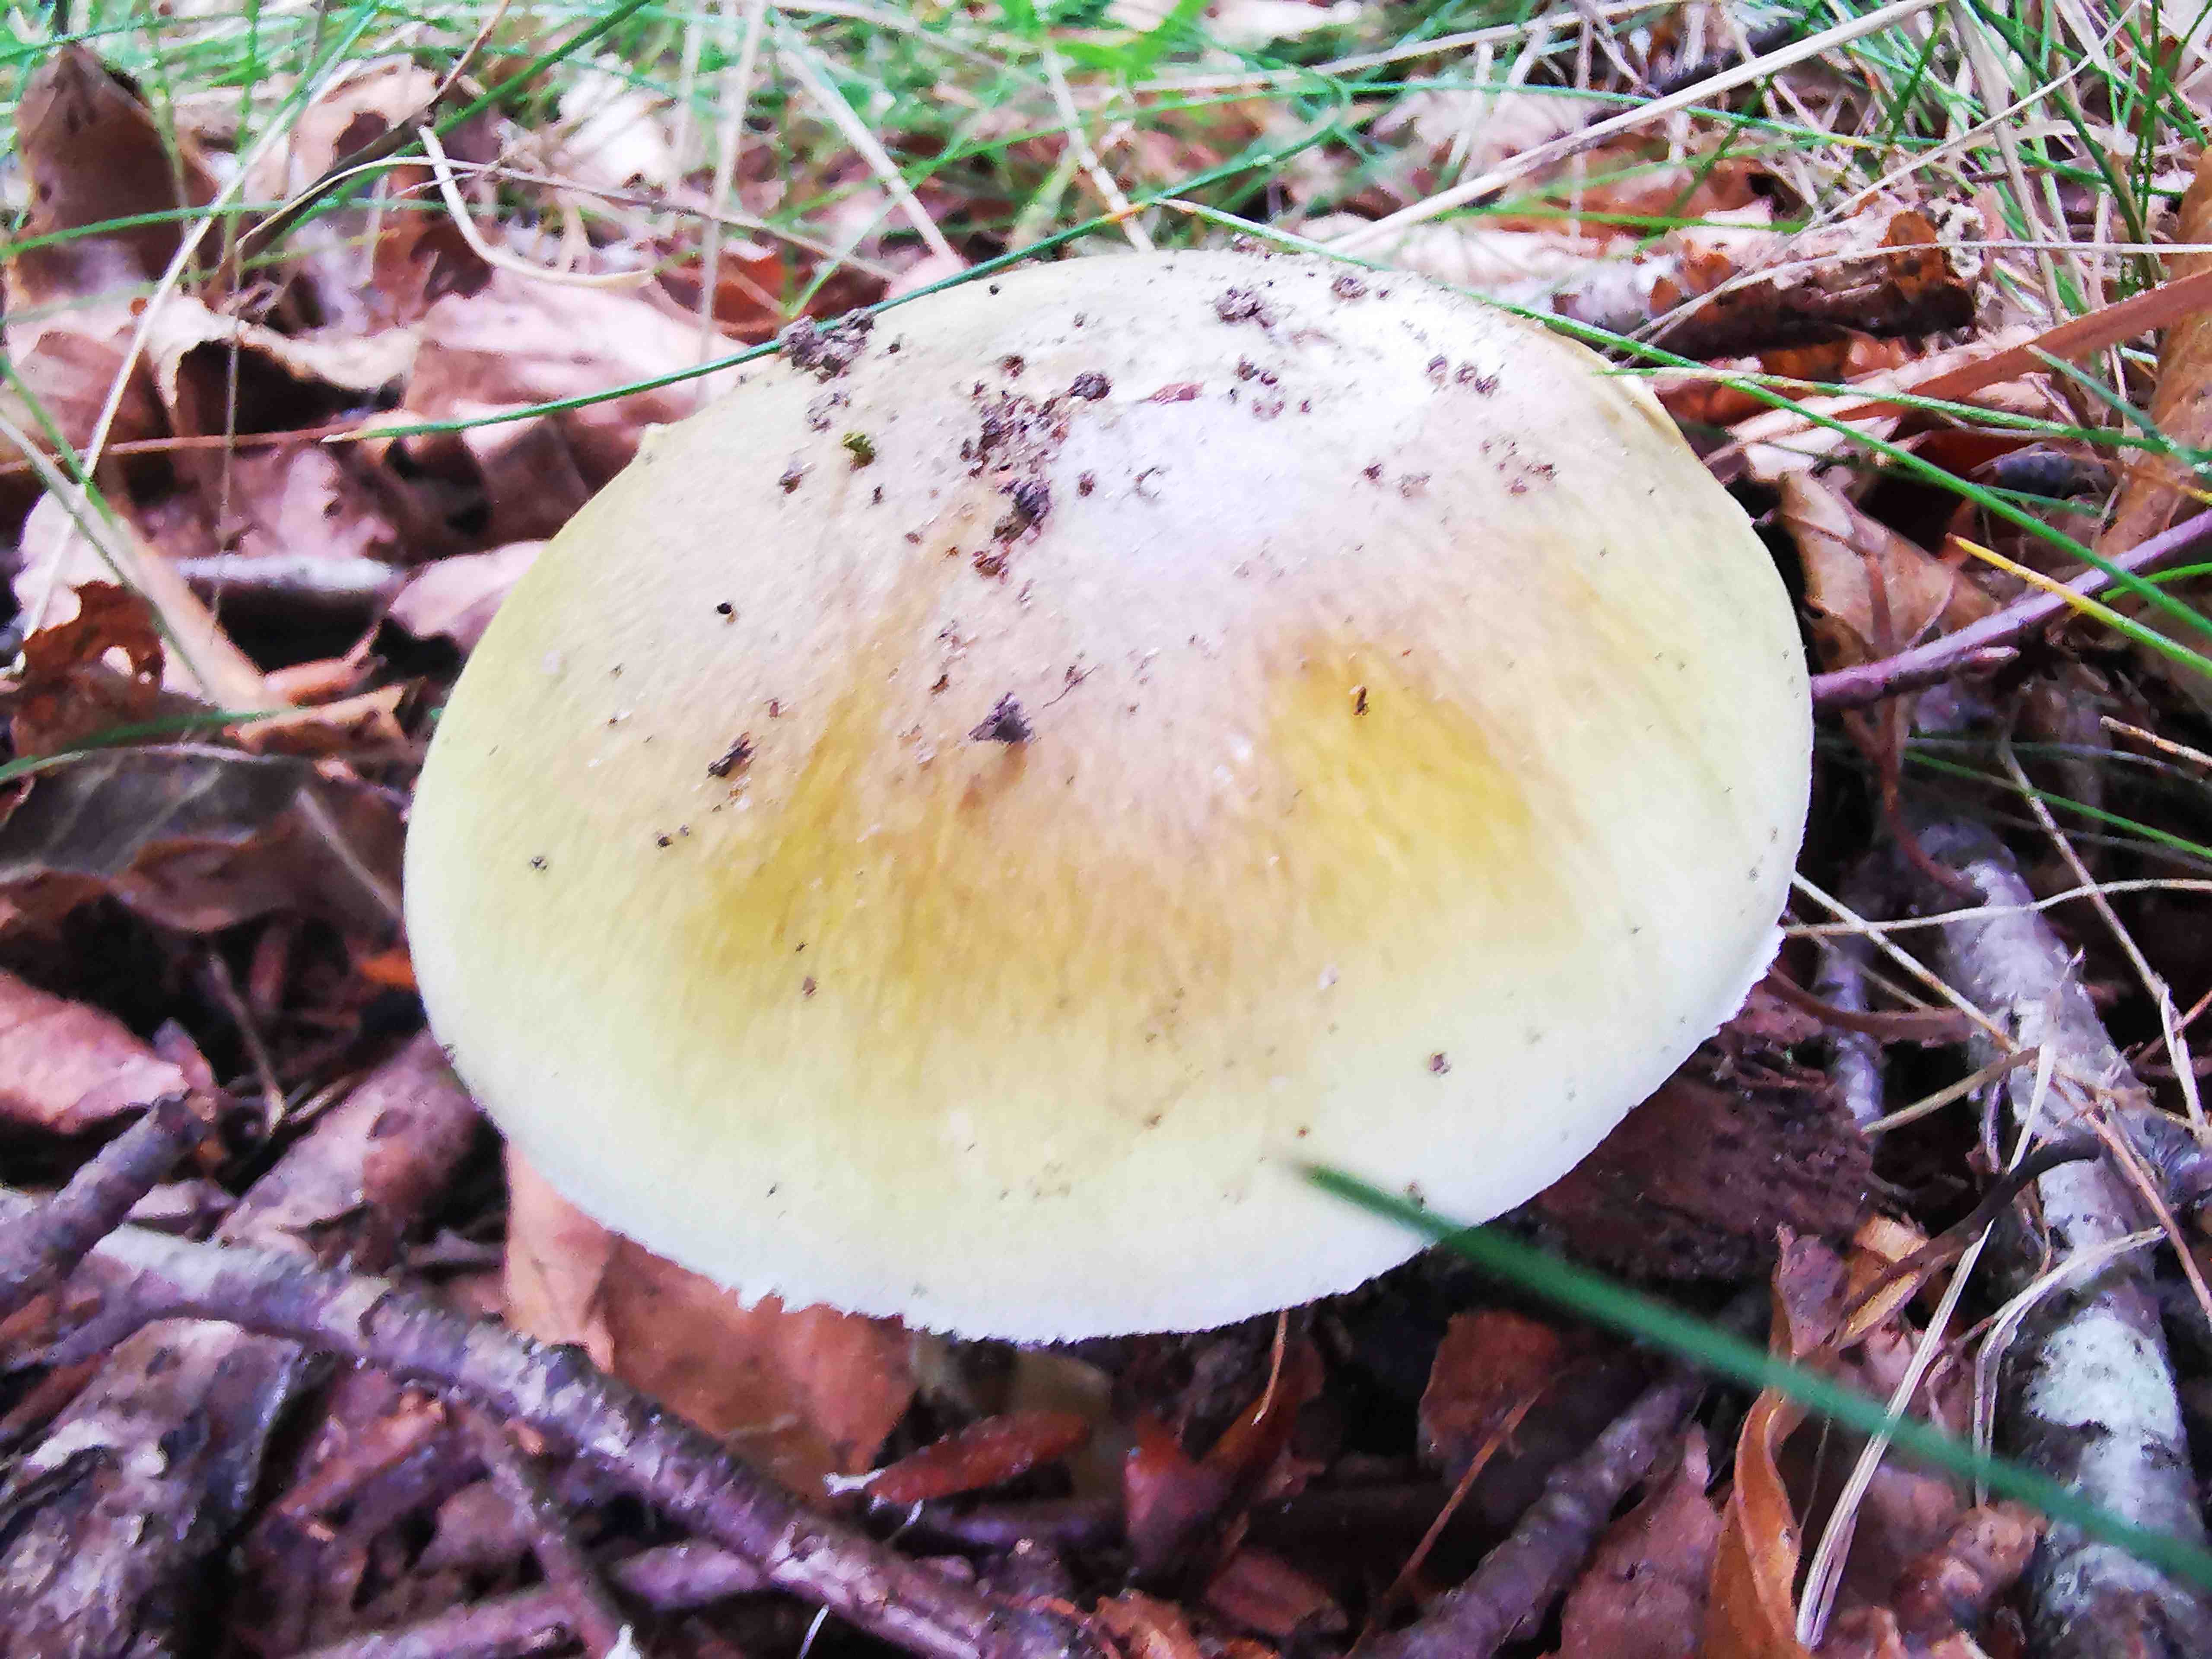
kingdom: Fungi
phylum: Basidiomycota
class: Agaricomycetes
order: Agaricales
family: Amanitaceae
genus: Amanita
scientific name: Amanita phalloides
